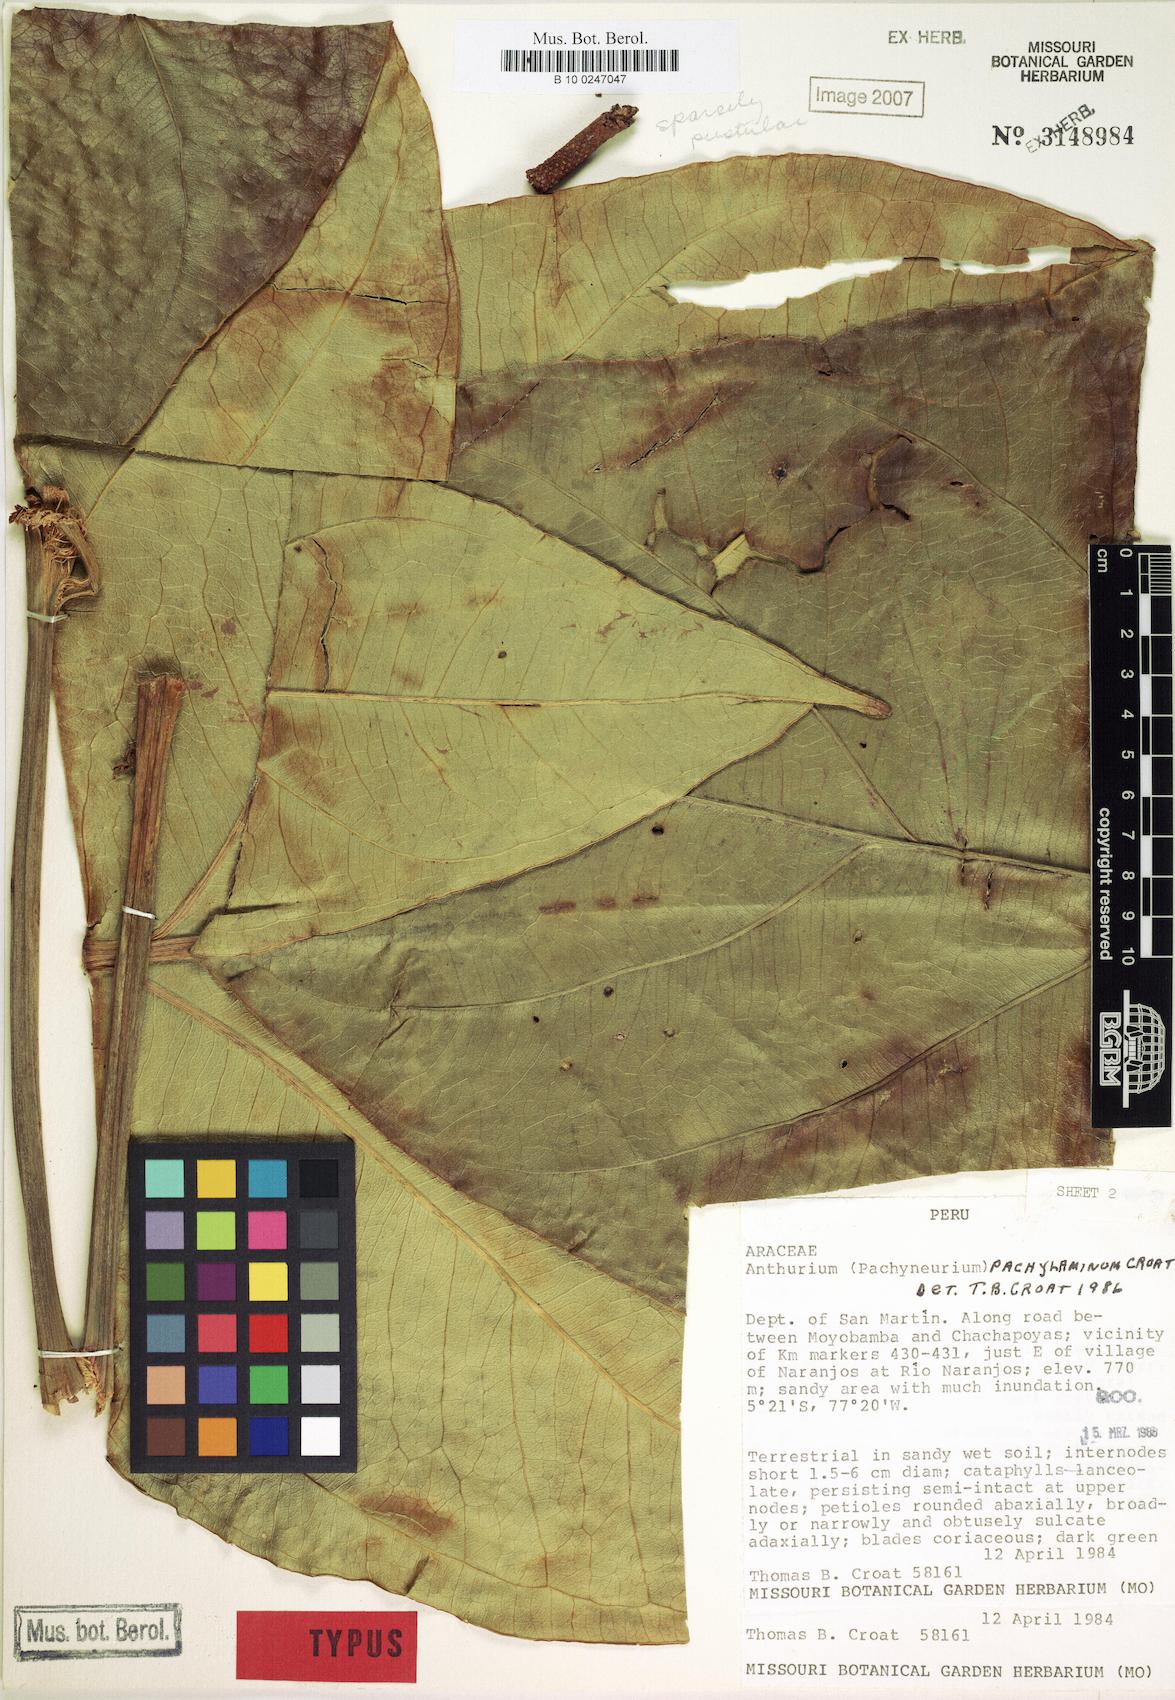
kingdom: Plantae
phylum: Tracheophyta
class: Liliopsida
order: Alismatales
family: Araceae
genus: Anthurium
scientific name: Anthurium pachylaminum
